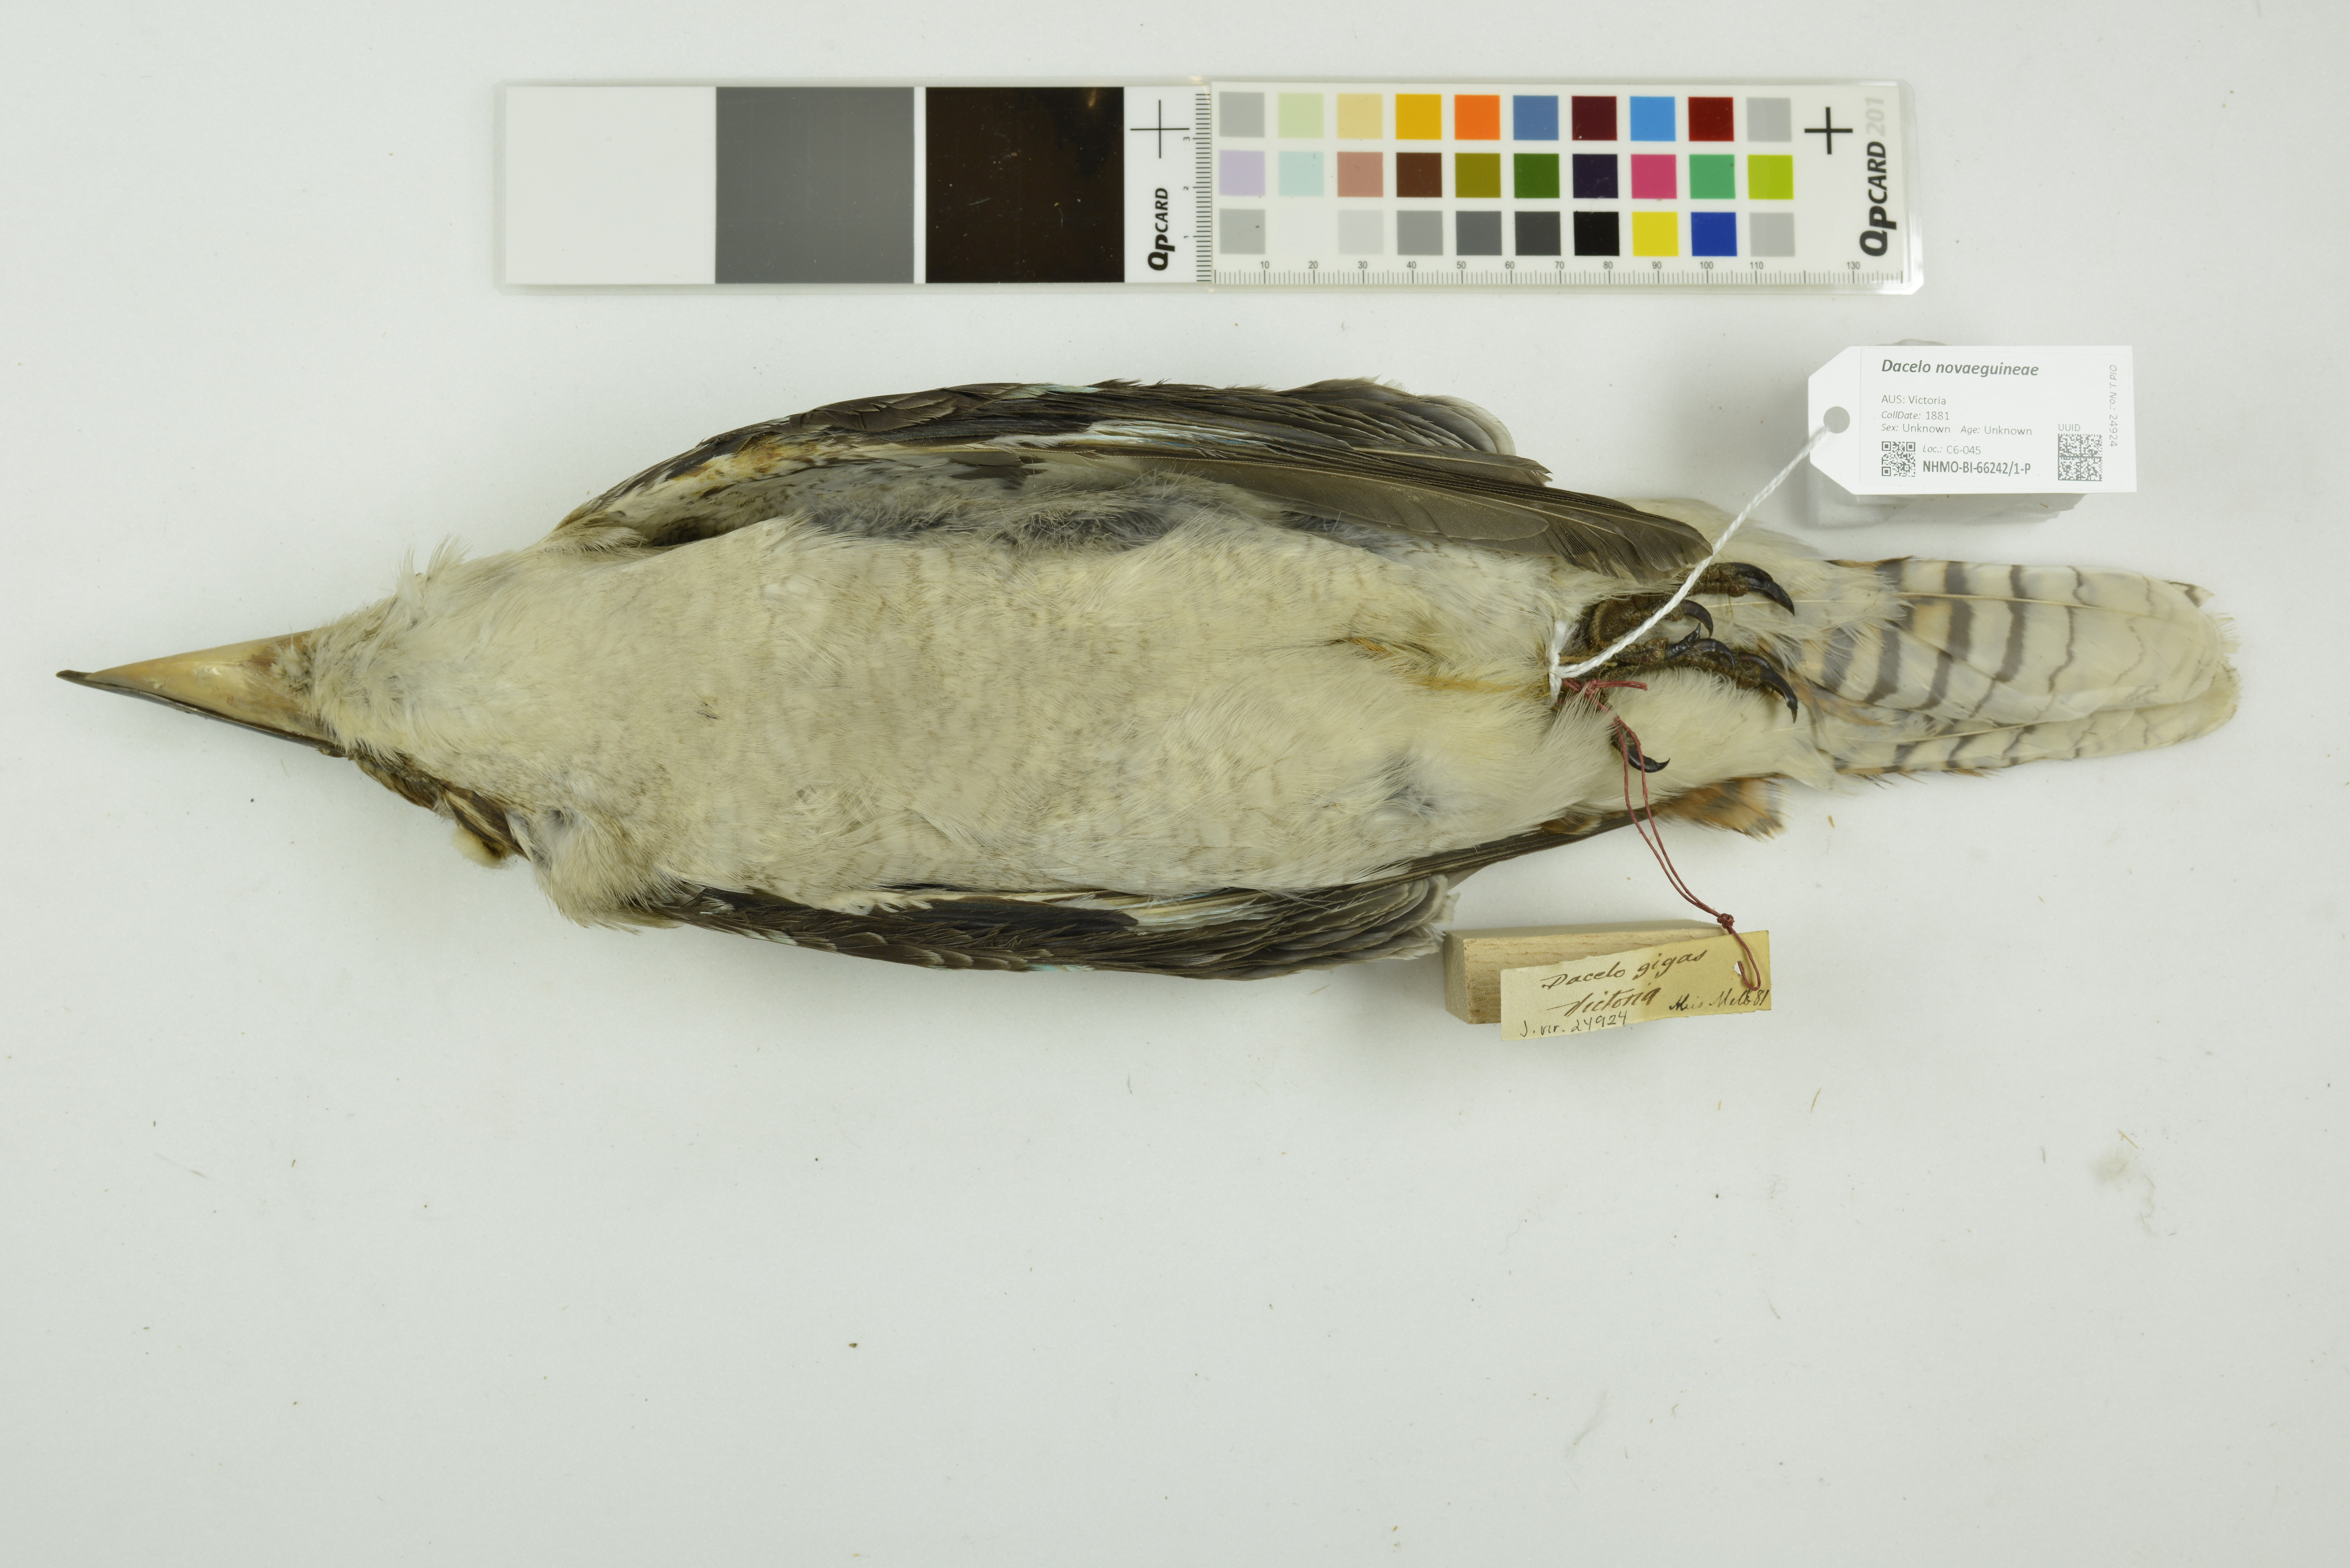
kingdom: Animalia
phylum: Chordata
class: Aves
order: Coraciiformes
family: Alcedinidae
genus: Dacelo
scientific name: Dacelo novaeguineae
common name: Laughing kookaburra
